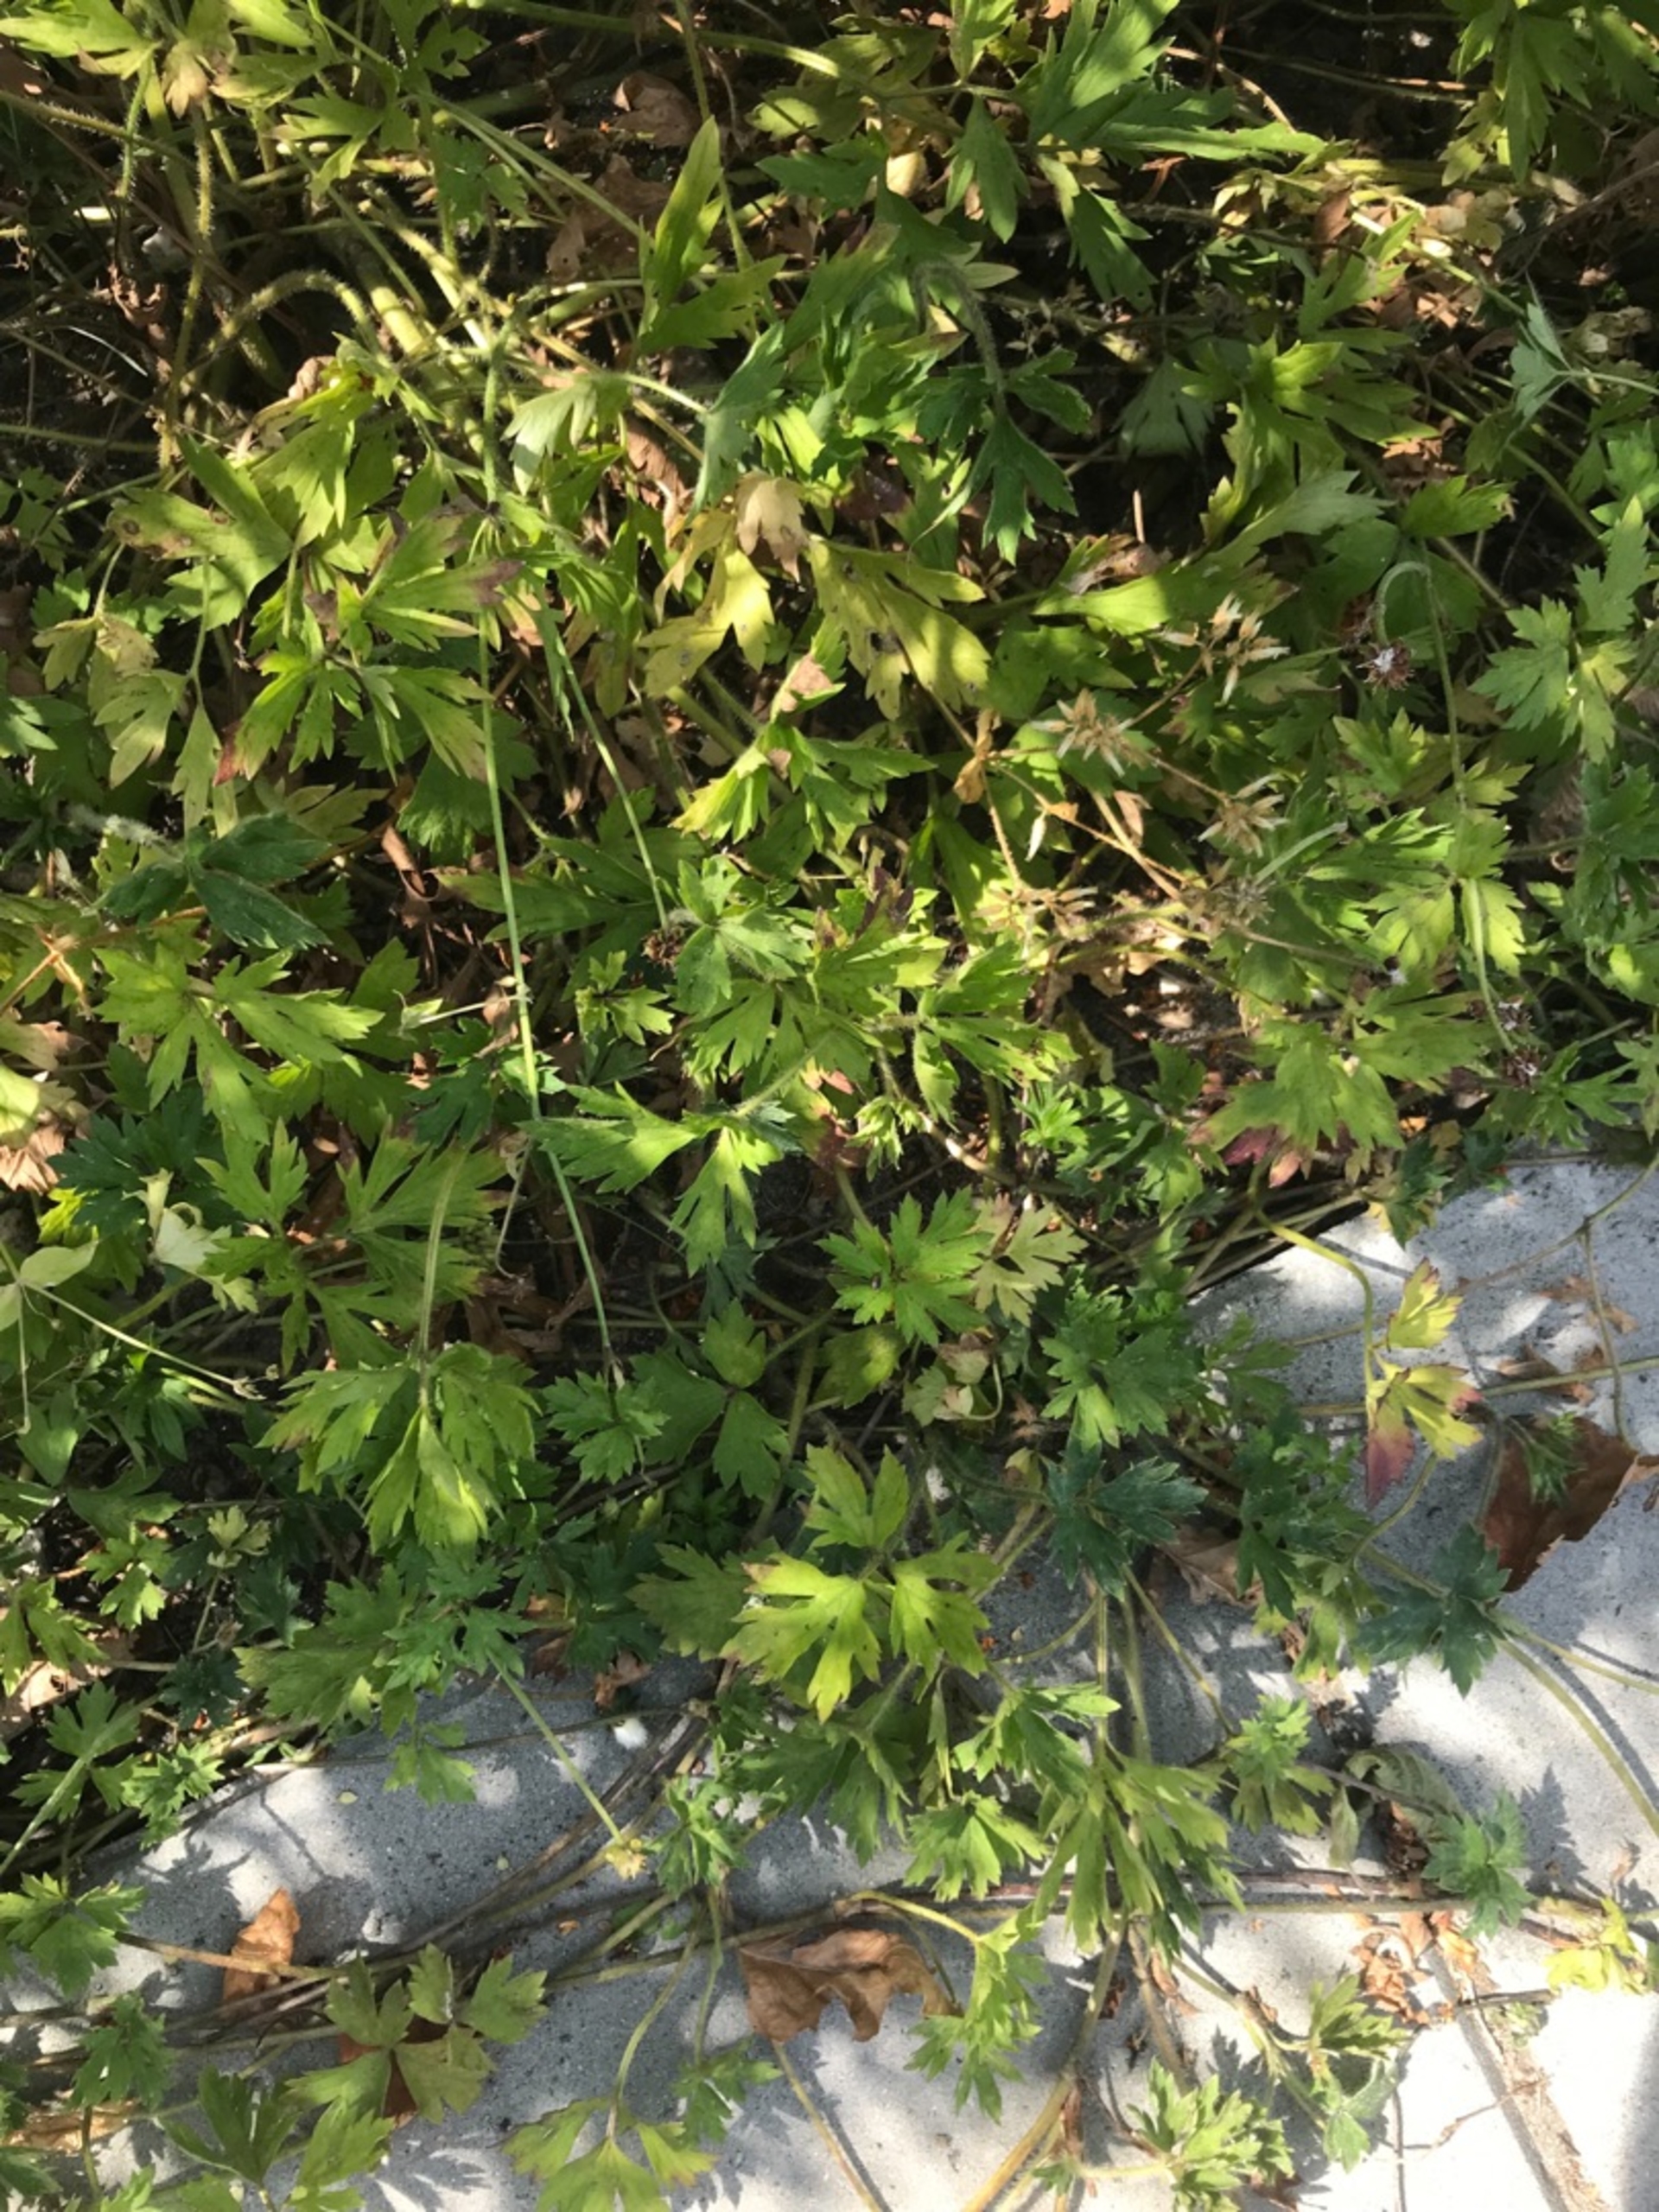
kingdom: Plantae
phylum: Tracheophyta
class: Magnoliopsida
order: Ranunculales
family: Ranunculaceae
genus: Ranunculus
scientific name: Ranunculus repens
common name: Lav ranunkel
